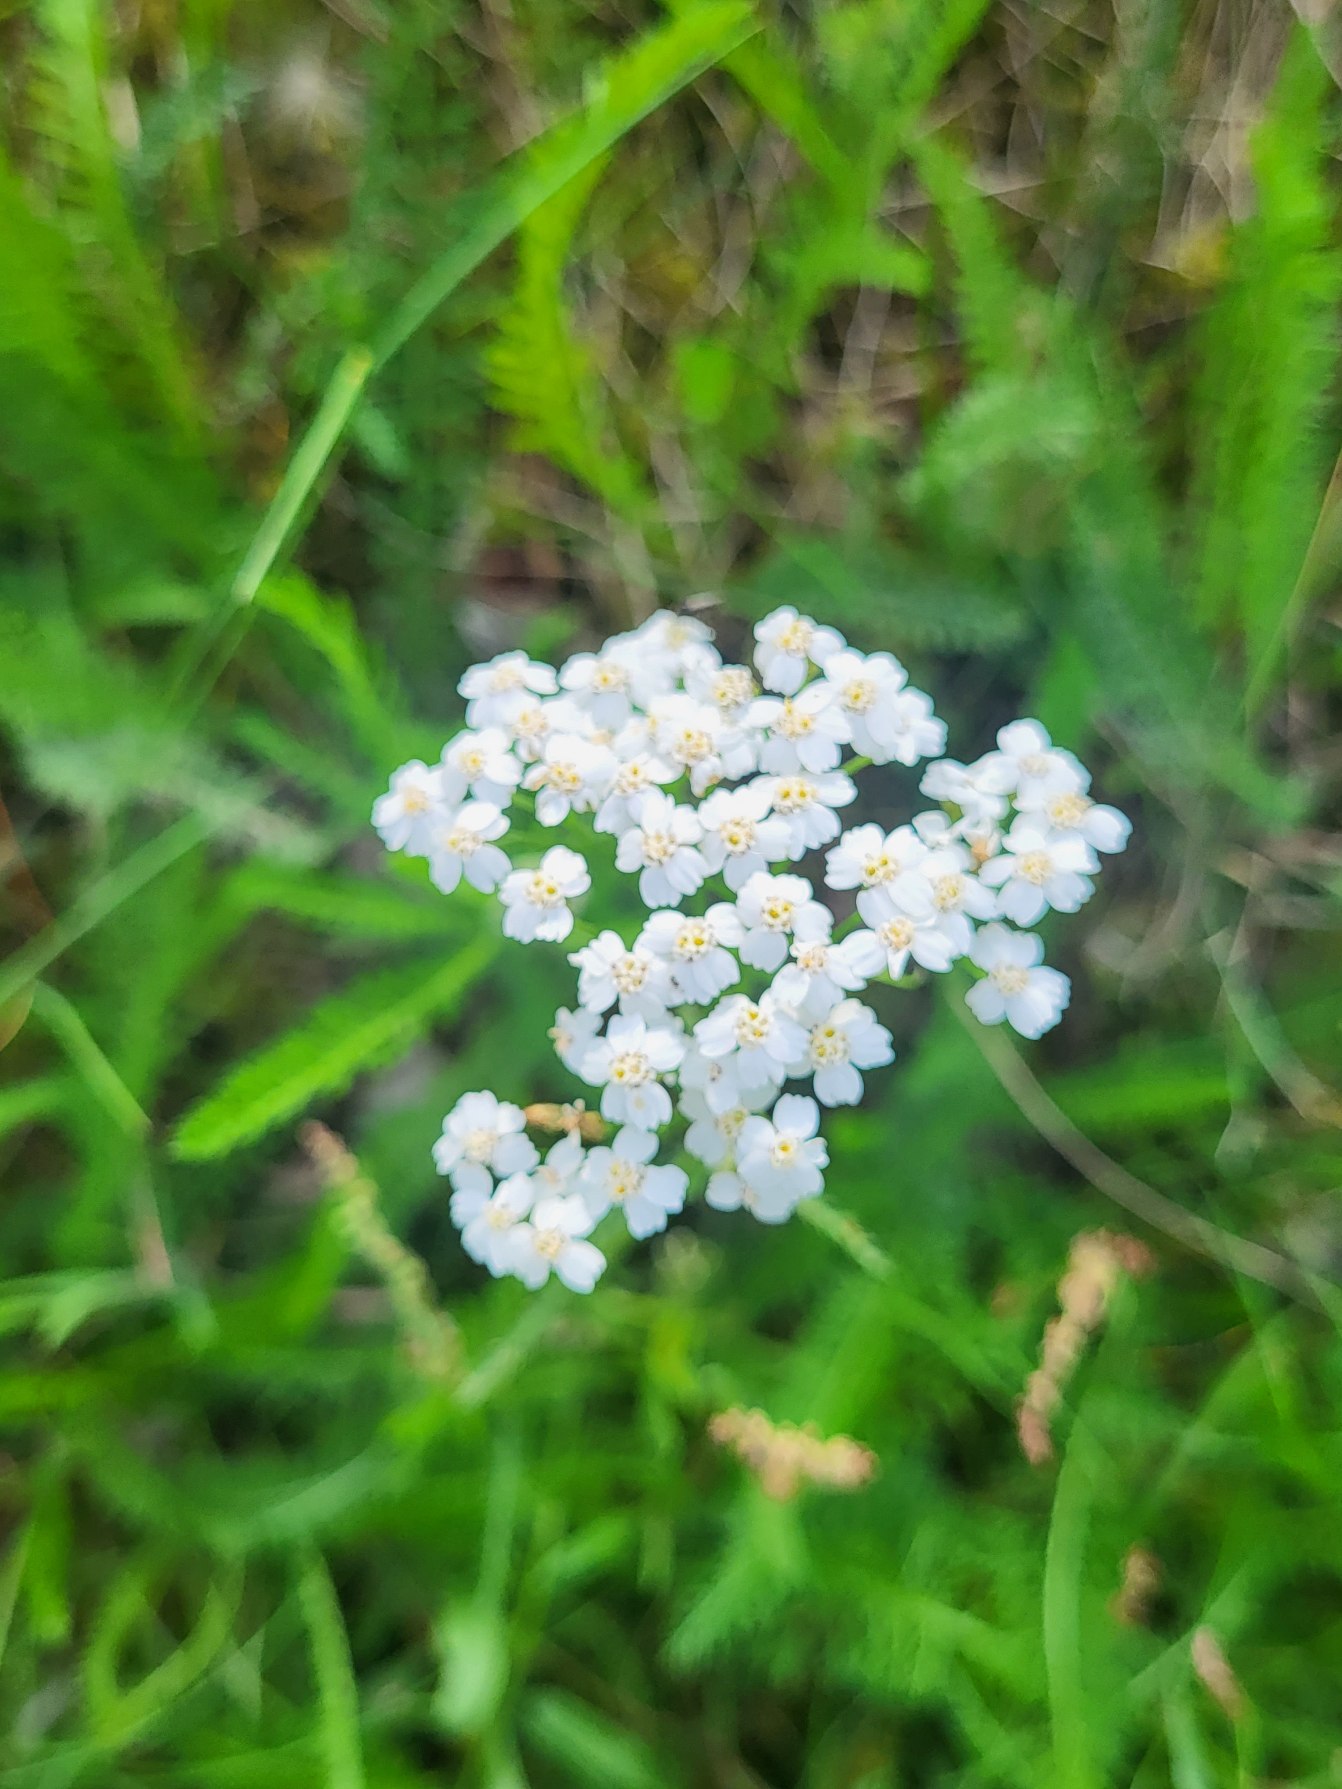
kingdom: Plantae
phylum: Tracheophyta
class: Magnoliopsida
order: Asterales
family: Asteraceae
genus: Achillea
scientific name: Achillea millefolium
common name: Almindelig røllike (underart)
